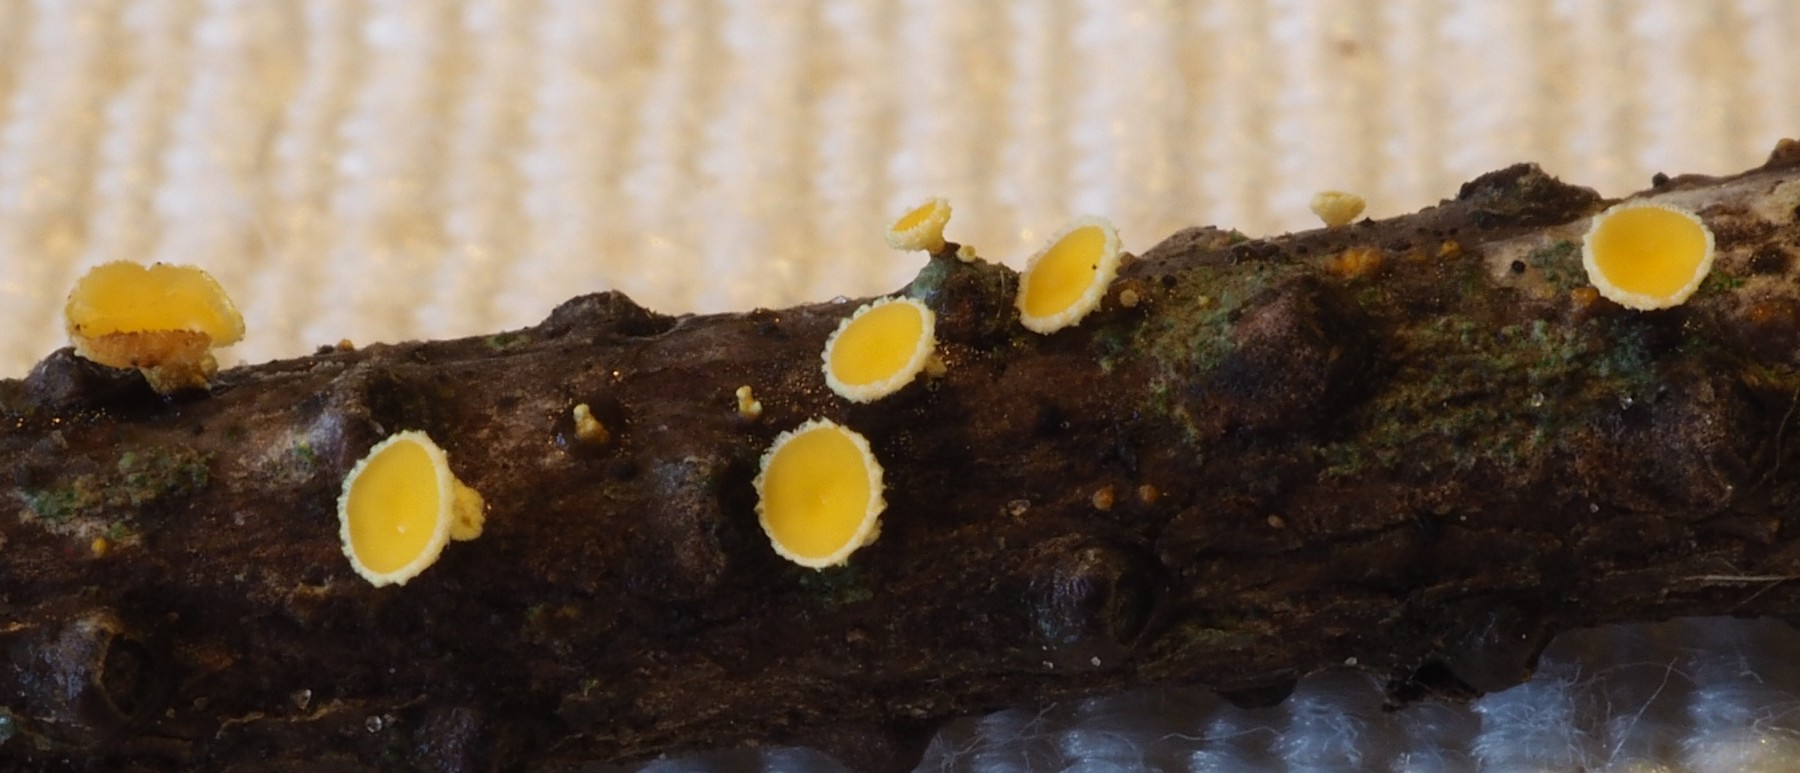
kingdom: Fungi
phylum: Ascomycota
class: Leotiomycetes
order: Helotiales
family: Lachnaceae
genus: Lachnellula
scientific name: Lachnellula subtilissima
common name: gran-frynseskive
